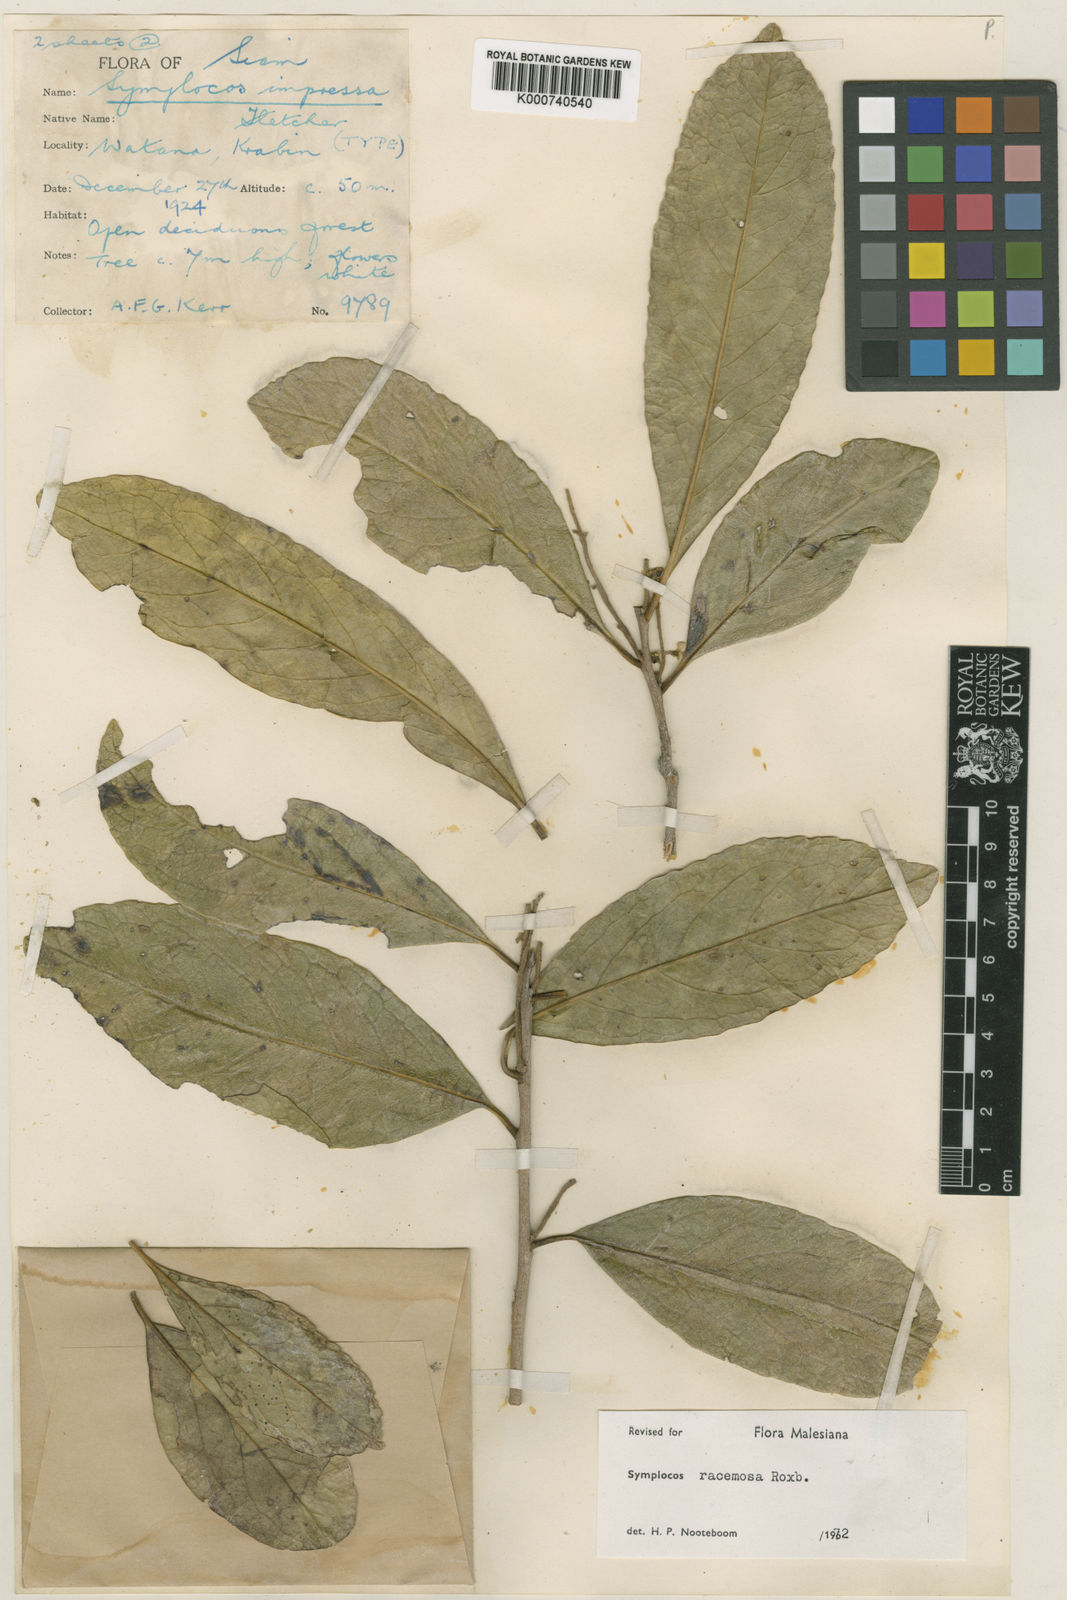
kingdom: Plantae
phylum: Tracheophyta
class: Magnoliopsida
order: Ericales
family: Symplocaceae
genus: Symplocos
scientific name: Symplocos racemosa
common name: Lodhtree
